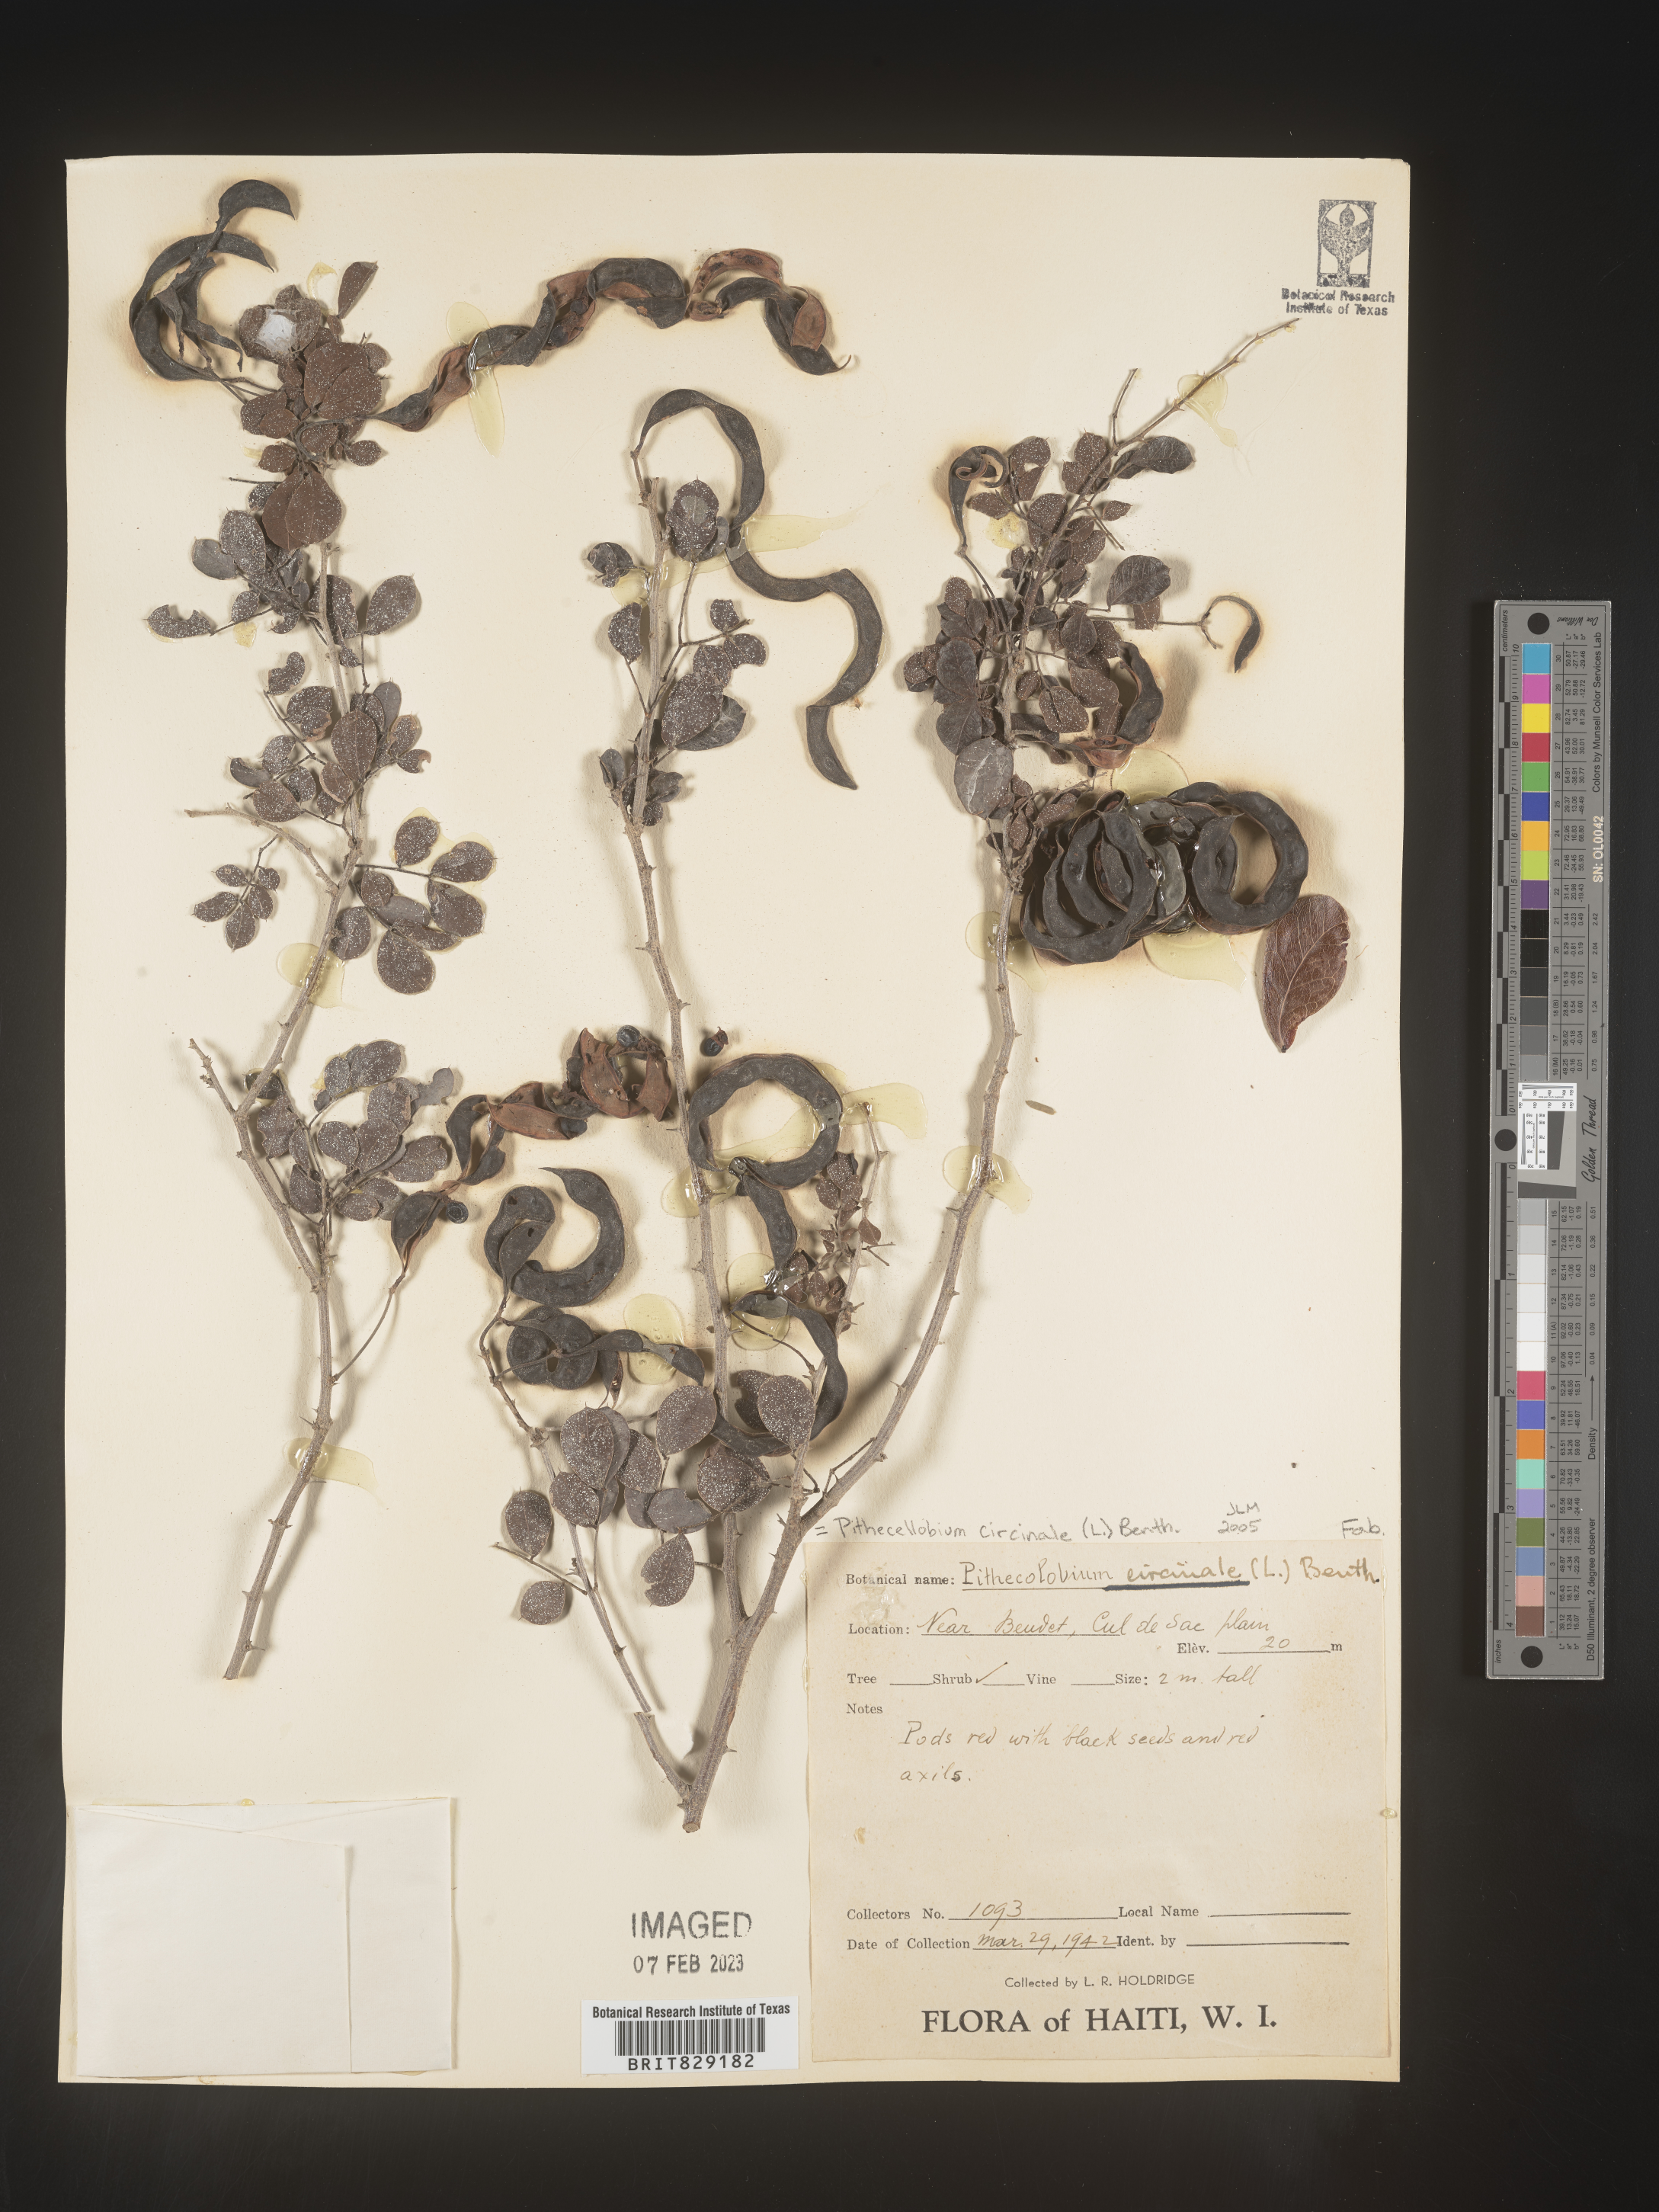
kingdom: Plantae
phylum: Tracheophyta
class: Magnoliopsida
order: Fabales
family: Fabaceae
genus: Pithecellobium
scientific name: Pithecellobium
